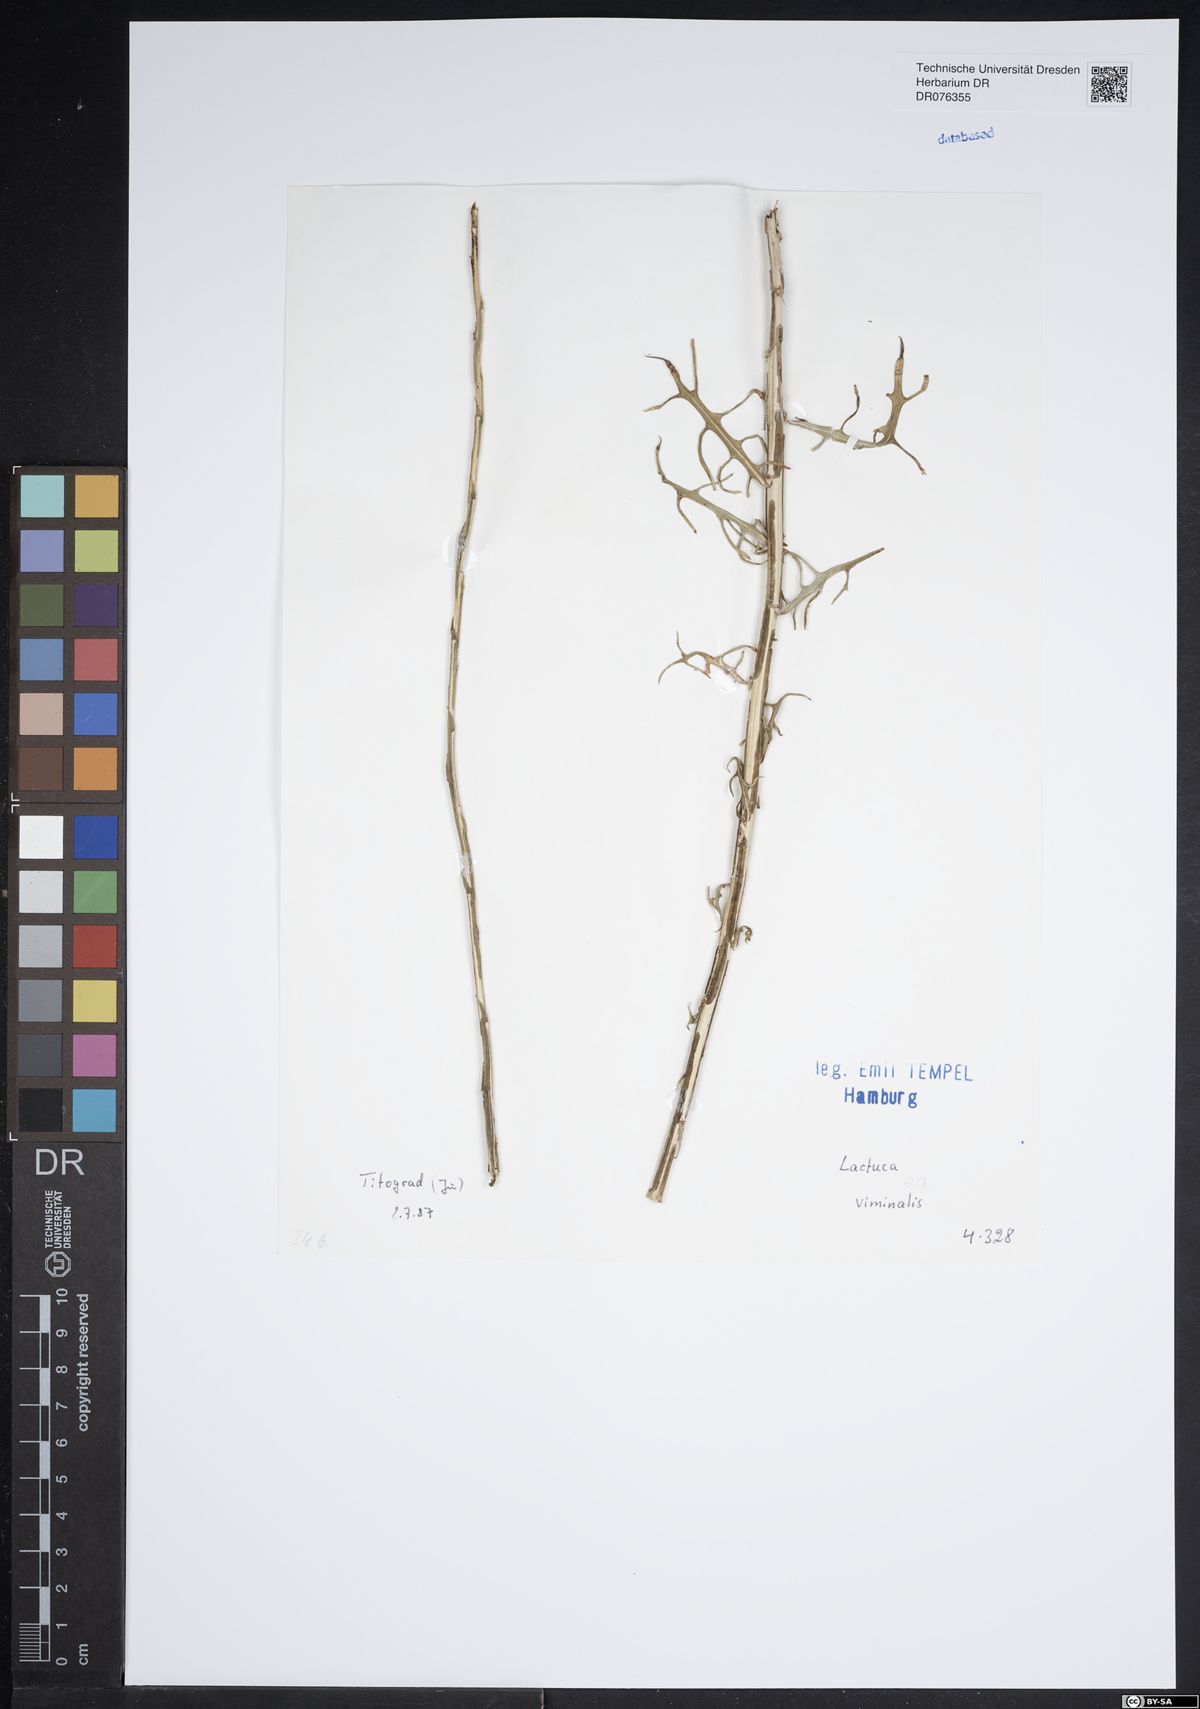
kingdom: Plantae
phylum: Tracheophyta
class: Magnoliopsida
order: Asterales
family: Asteraceae
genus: Lactuca
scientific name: Lactuca viminea
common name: Pliant lettuce
